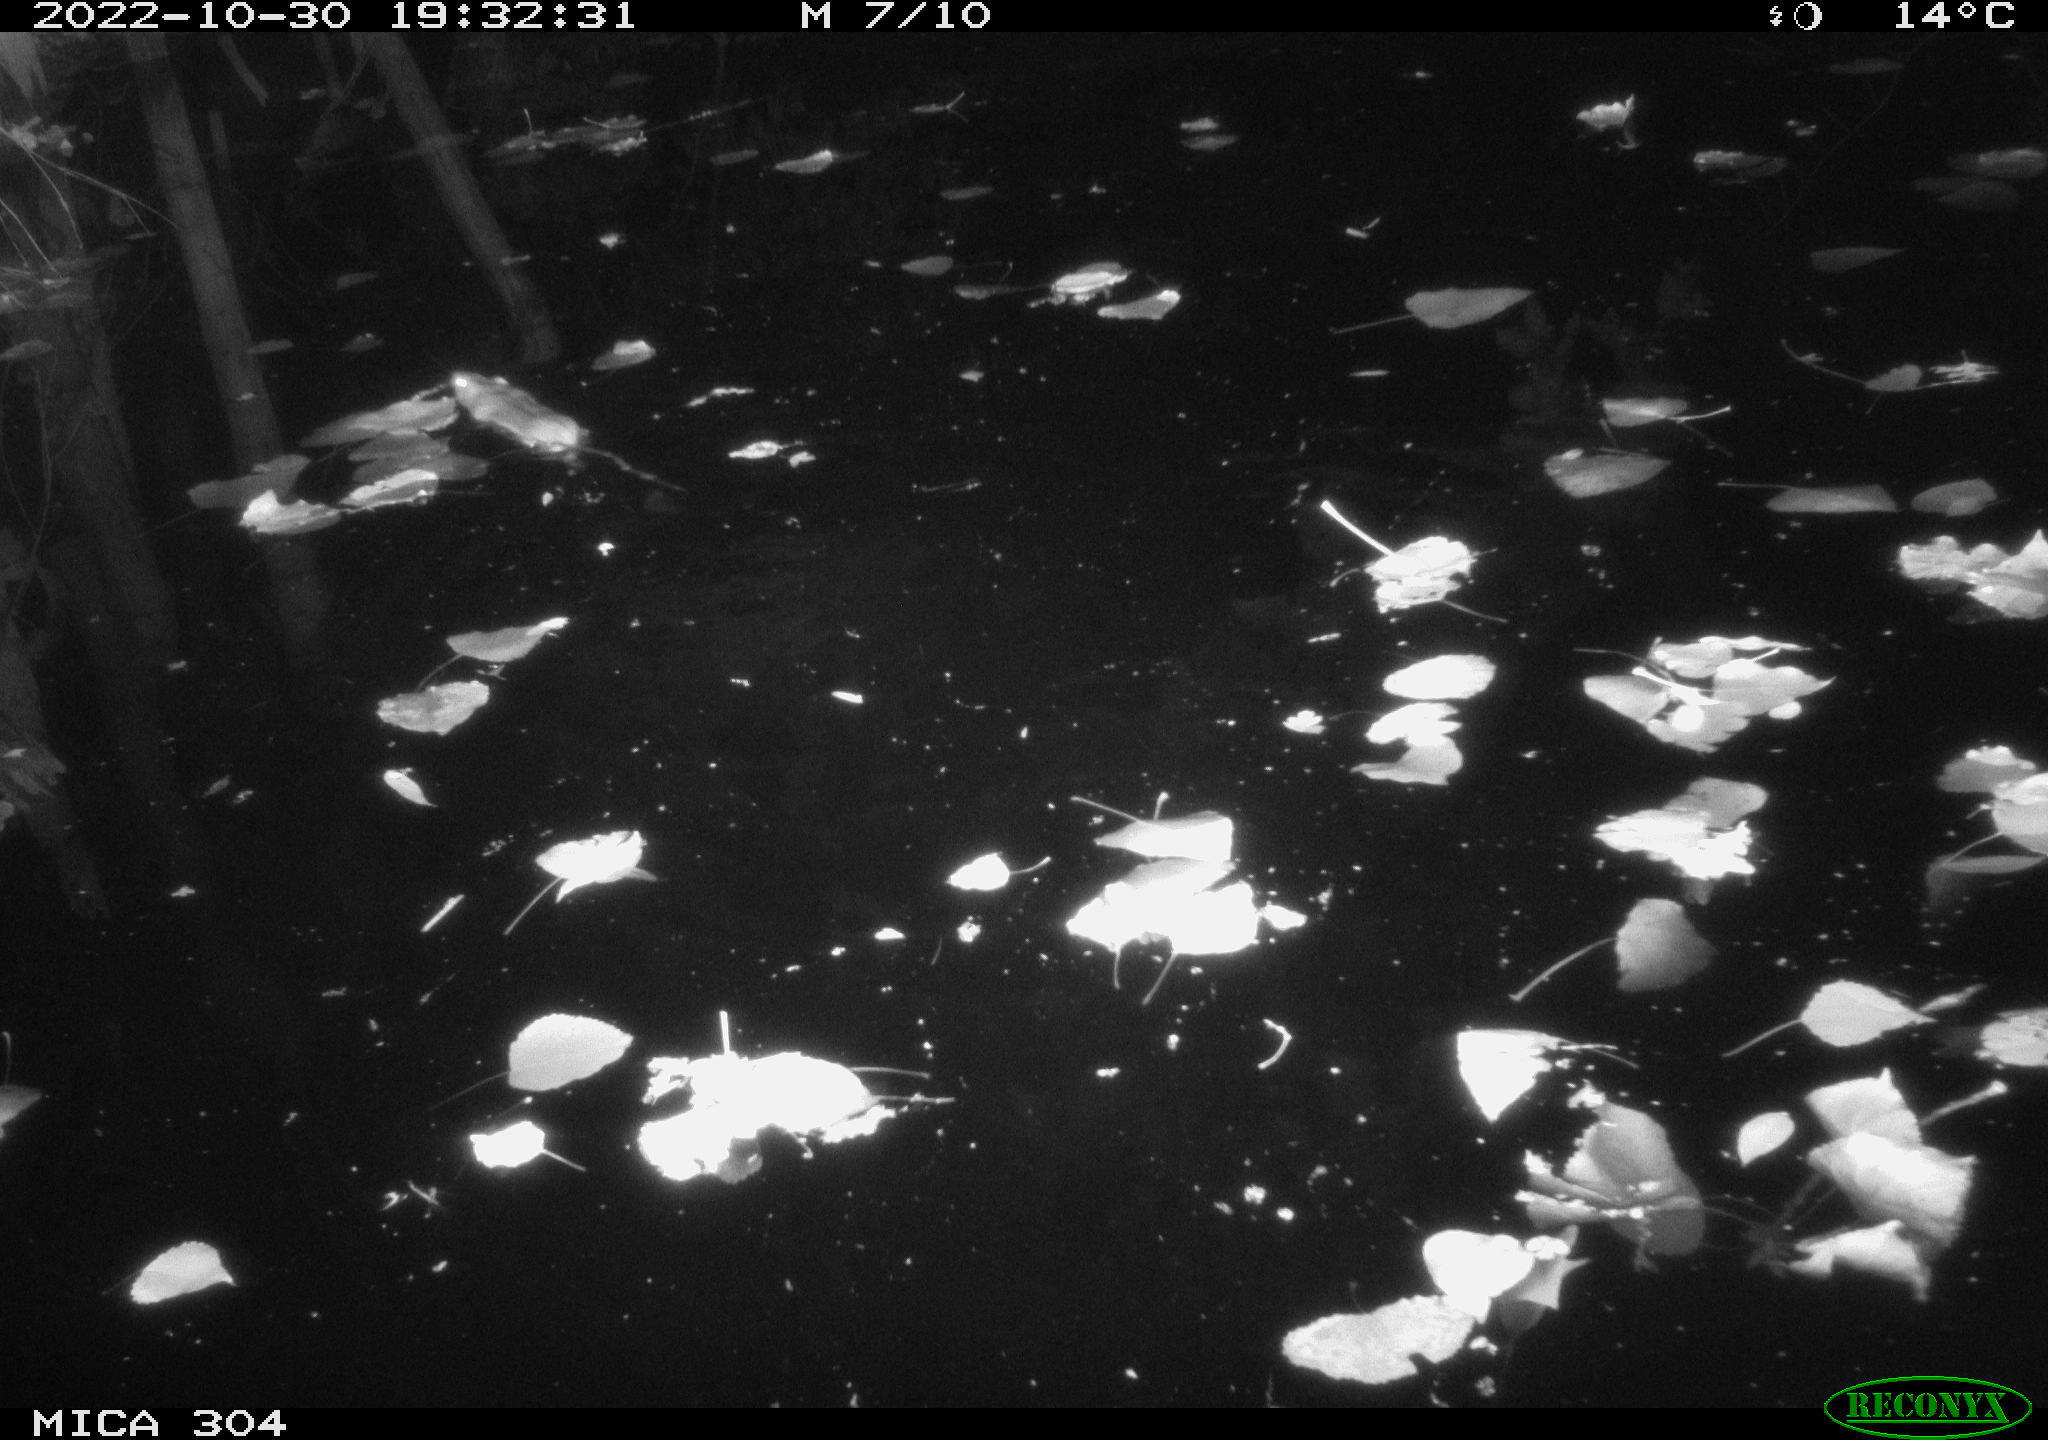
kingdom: Animalia
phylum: Chordata
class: Mammalia
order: Rodentia
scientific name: Rodentia
